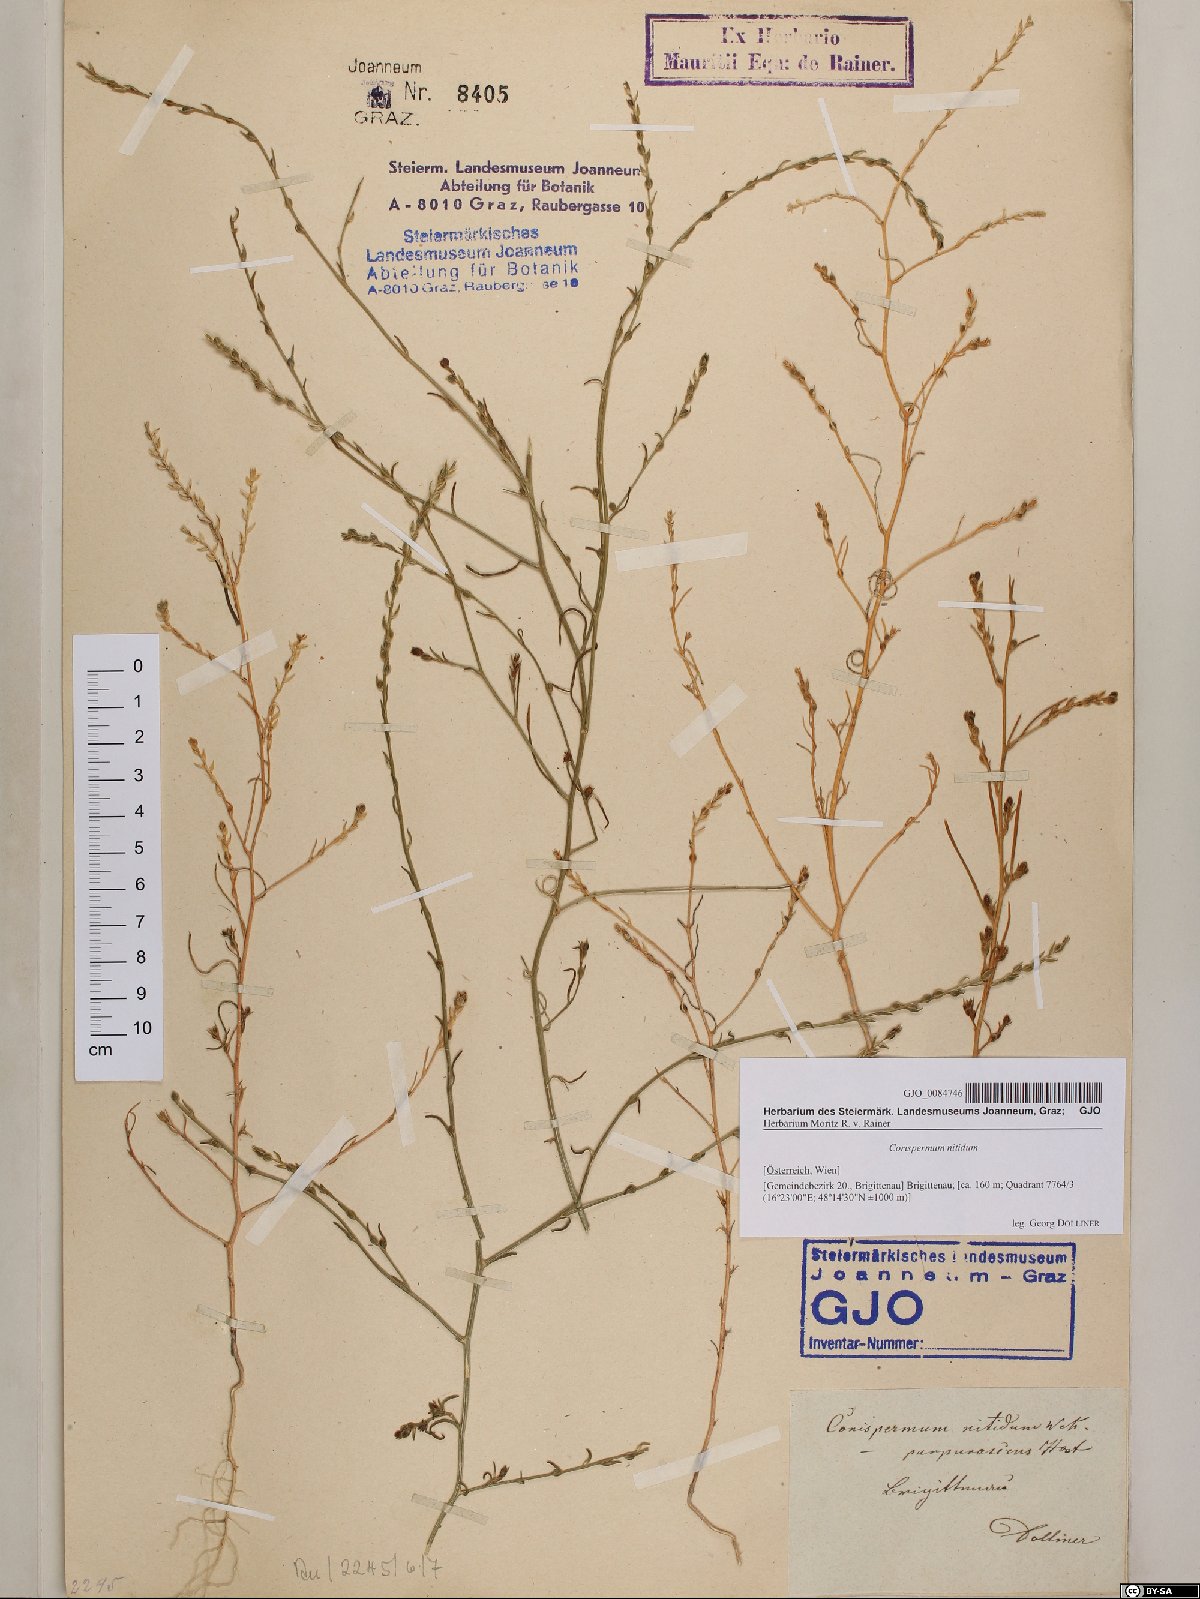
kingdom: Plantae
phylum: Tracheophyta
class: Magnoliopsida
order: Caryophyllales
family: Amaranthaceae
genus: Corispermum
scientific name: Corispermum nitidum
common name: Bugseed
